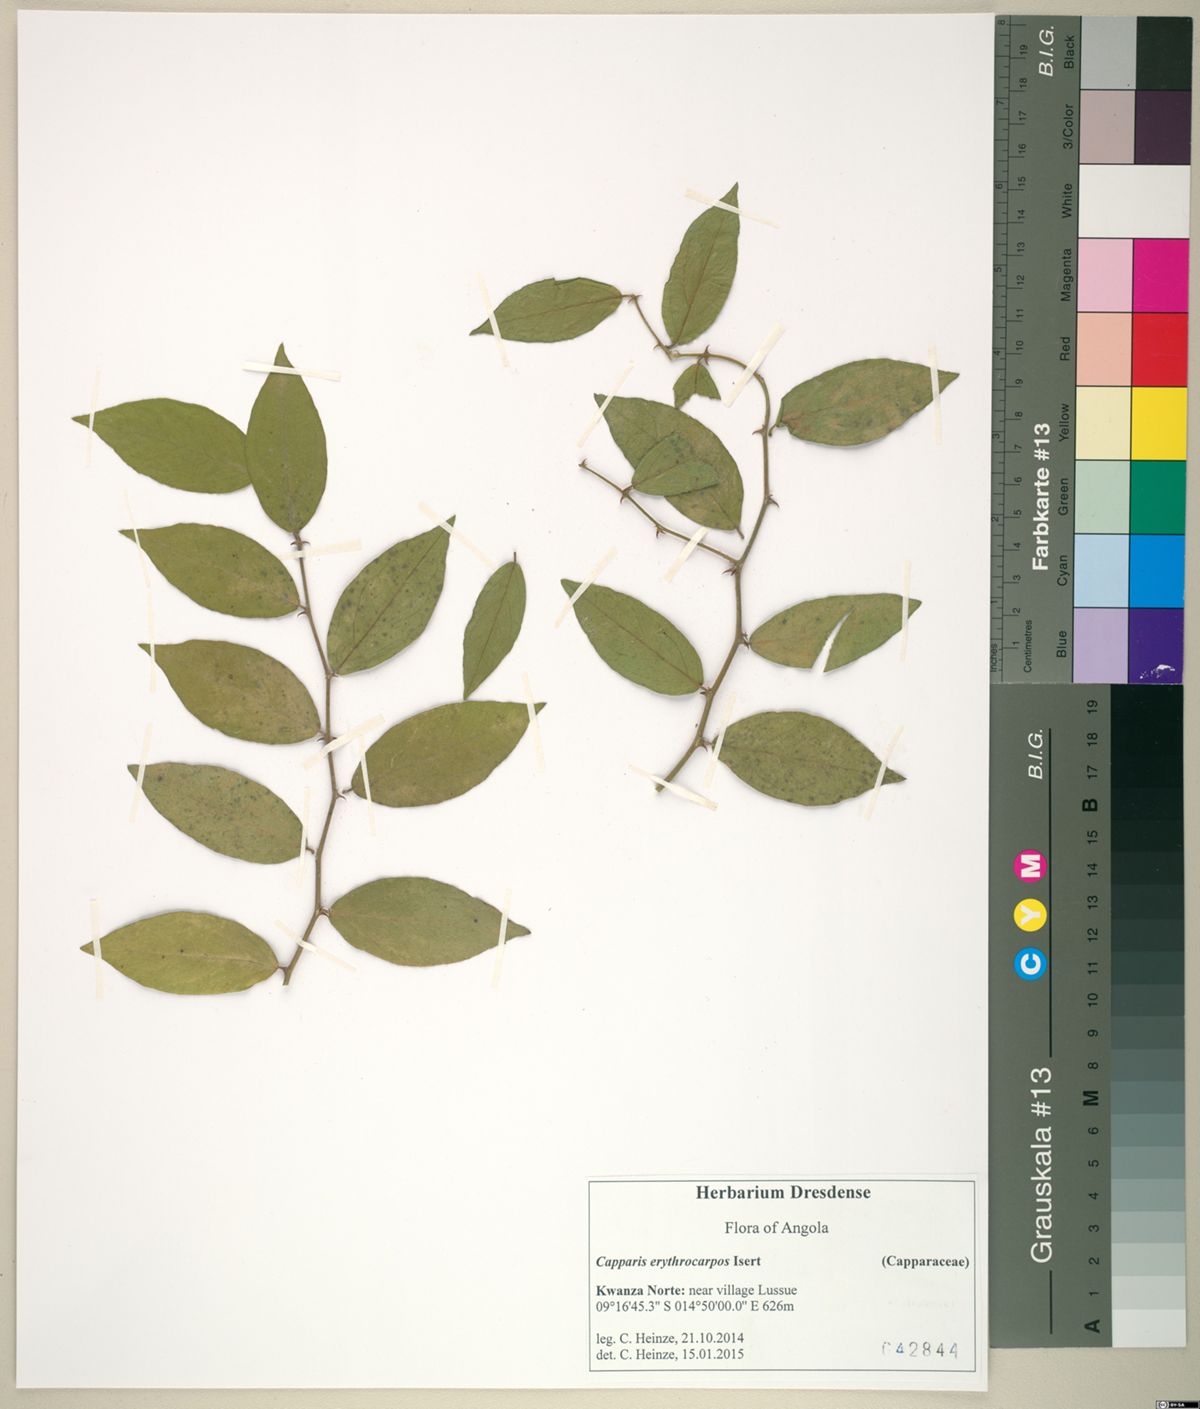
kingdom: Plantae
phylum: Tracheophyta
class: Magnoliopsida
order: Brassicales
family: Capparaceae
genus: Capparis
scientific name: Capparis erythrocarpos
